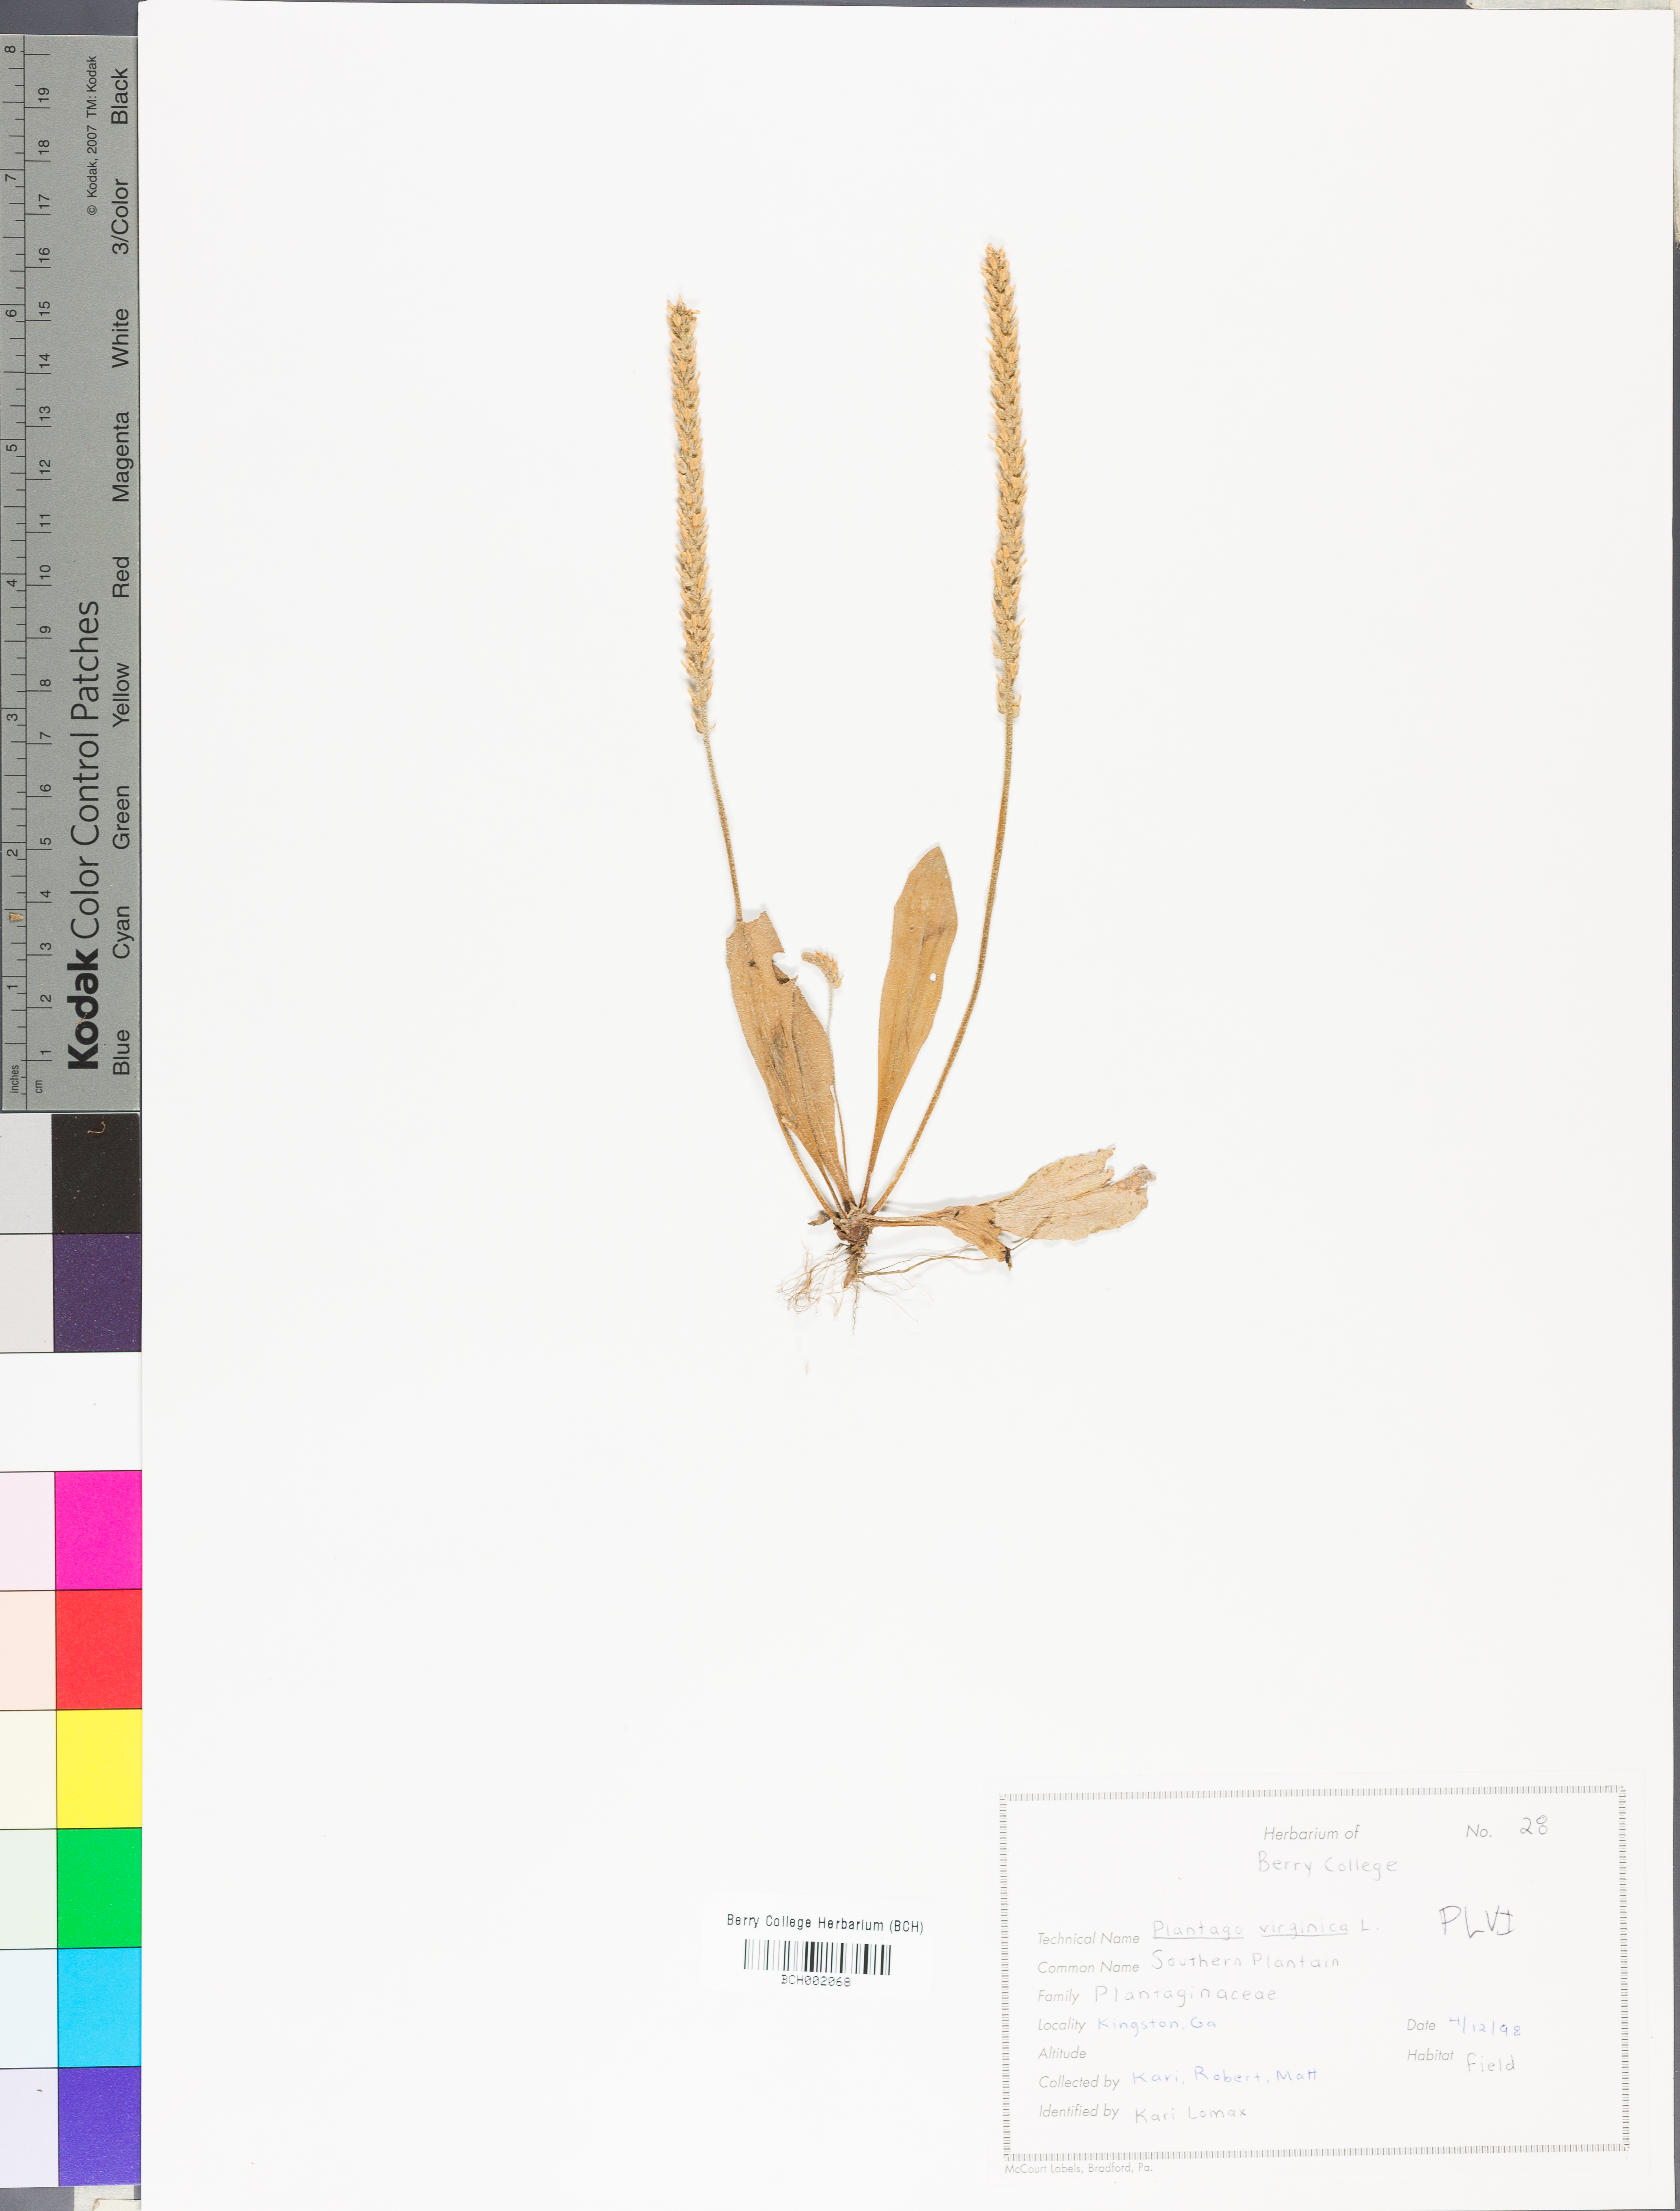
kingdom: Plantae
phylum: Tracheophyta
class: Magnoliopsida
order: Lamiales
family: Plantaginaceae
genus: Plantago
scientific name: Plantago virginica
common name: Hoary plantain
